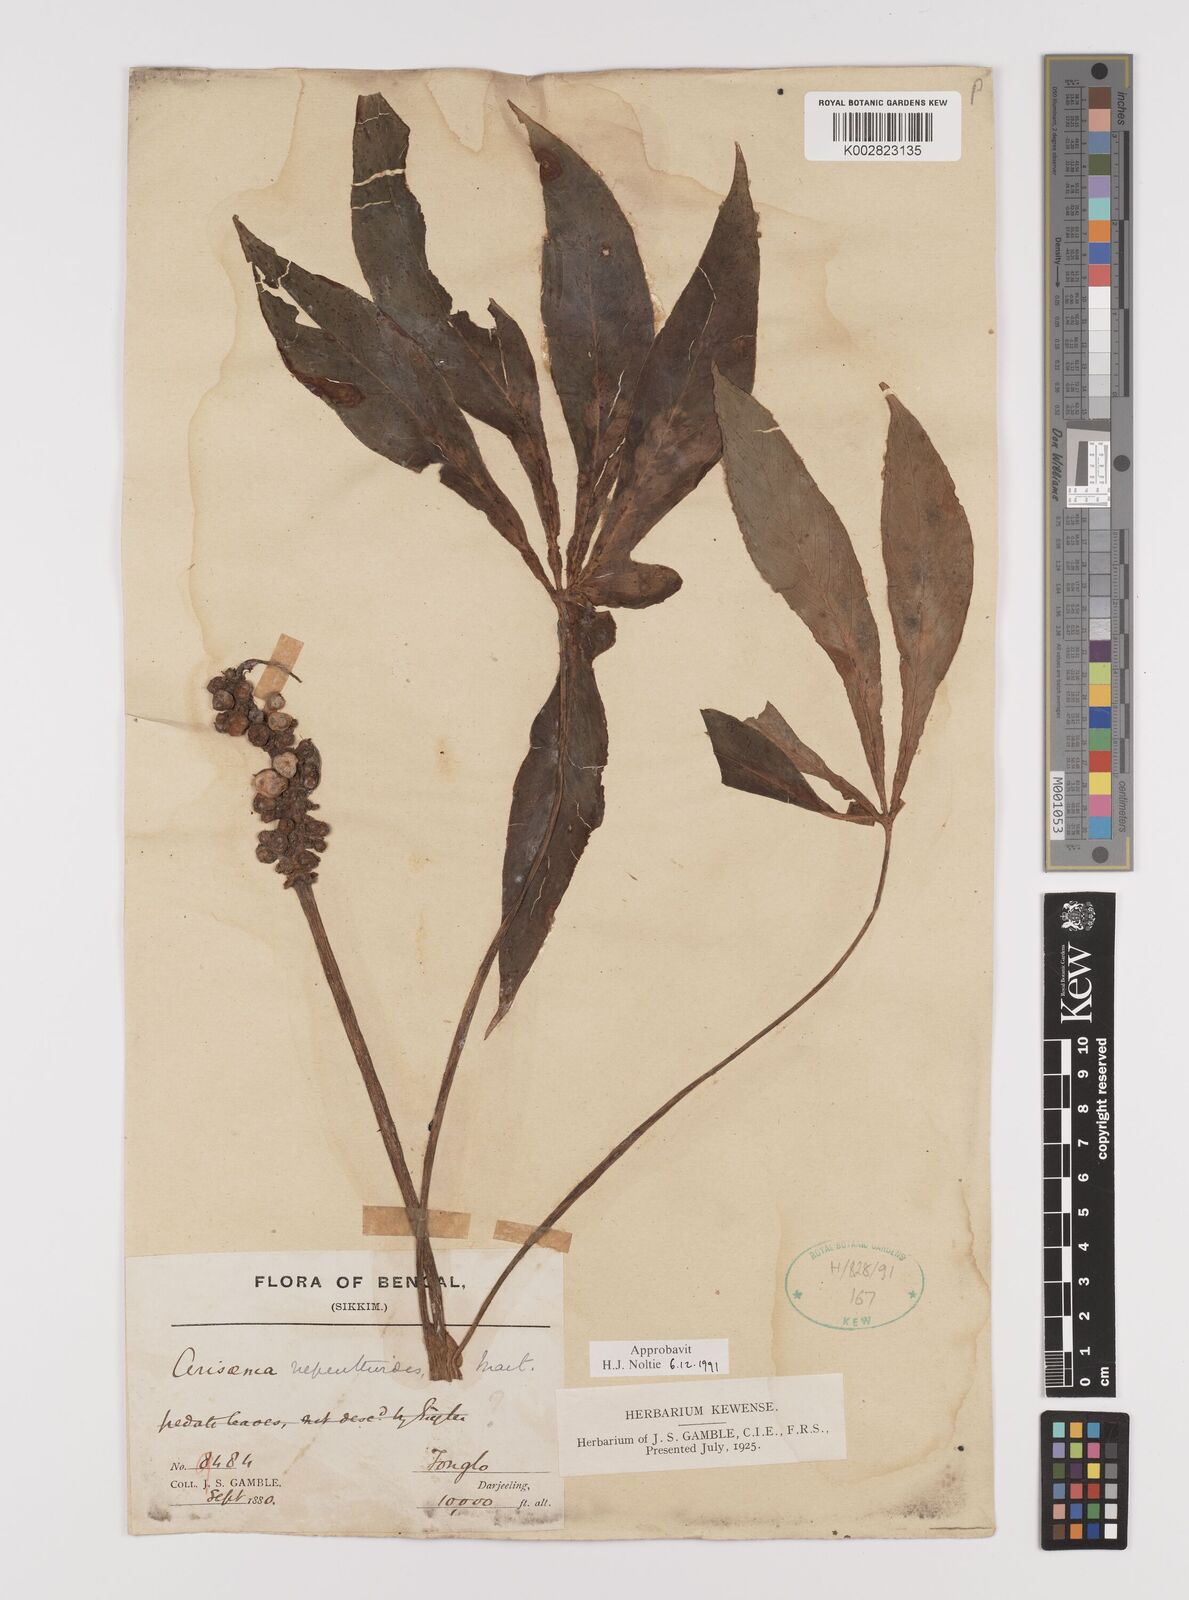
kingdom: Plantae
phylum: Tracheophyta
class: Liliopsida
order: Alismatales
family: Araceae
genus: Arisaema
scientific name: Arisaema nepenthoides
